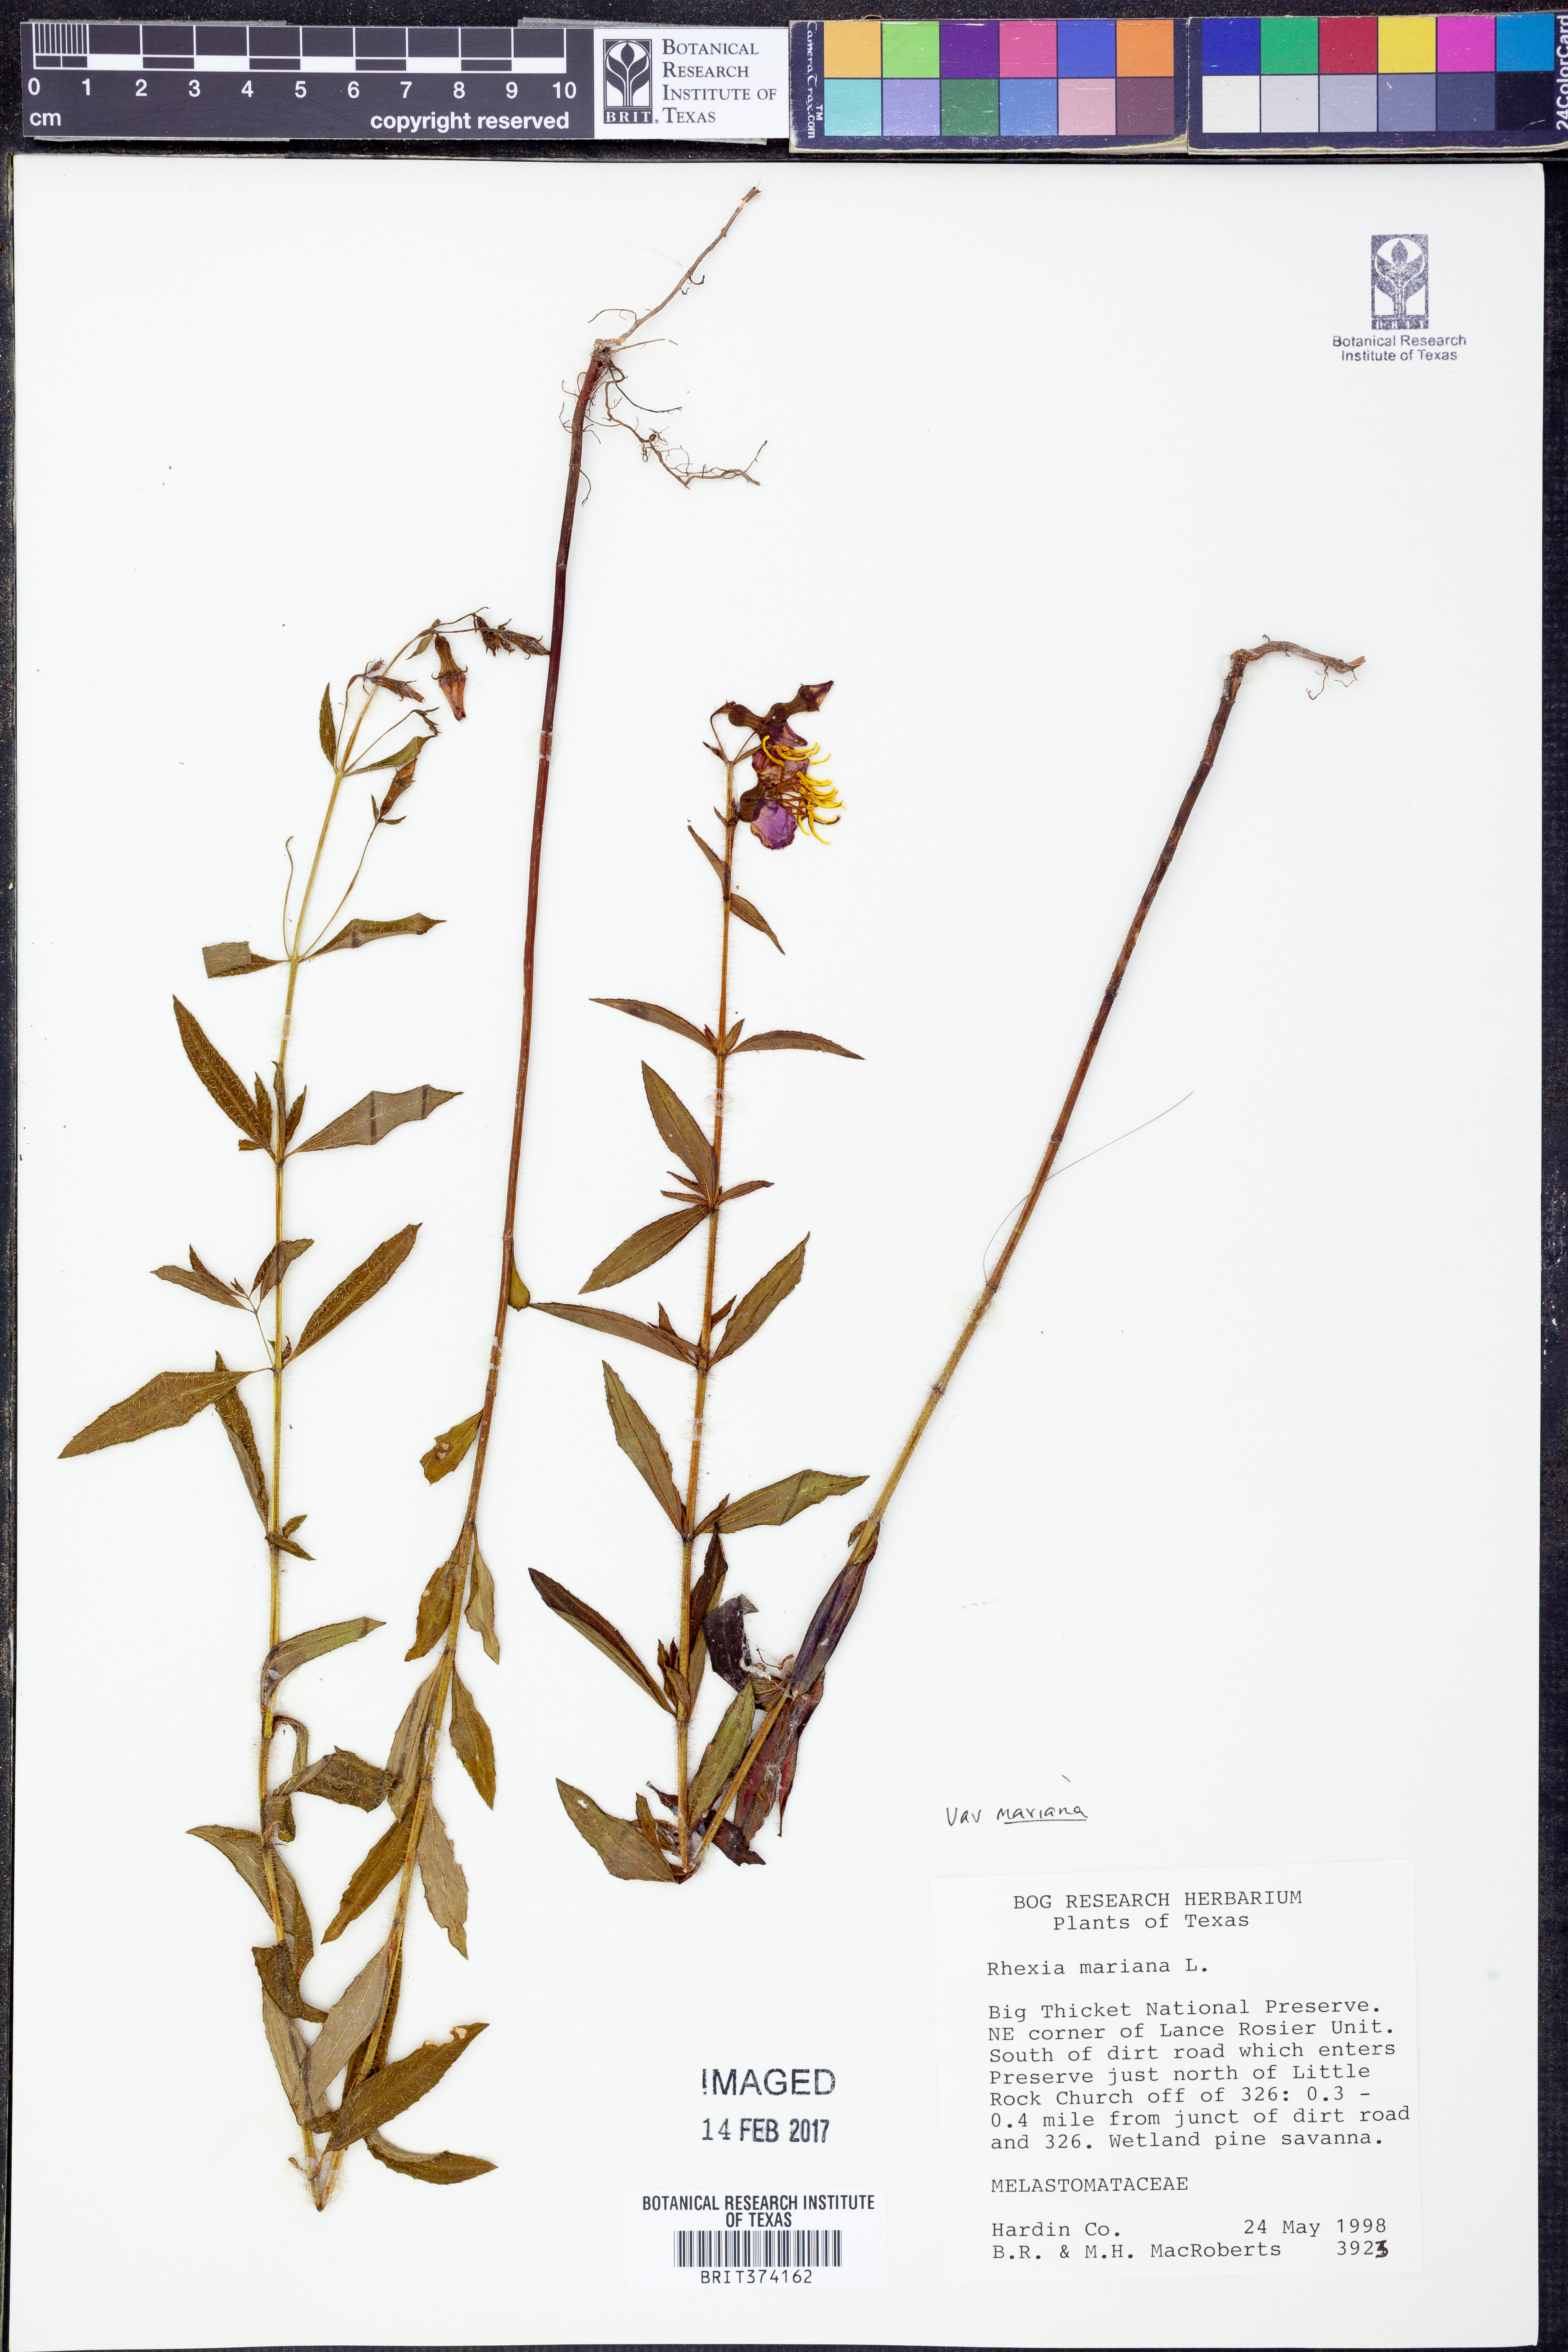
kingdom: Plantae
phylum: Tracheophyta
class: Magnoliopsida
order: Myrtales
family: Melastomataceae
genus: Rhexia
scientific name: Rhexia mariana
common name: Dull meadow-pitcher
